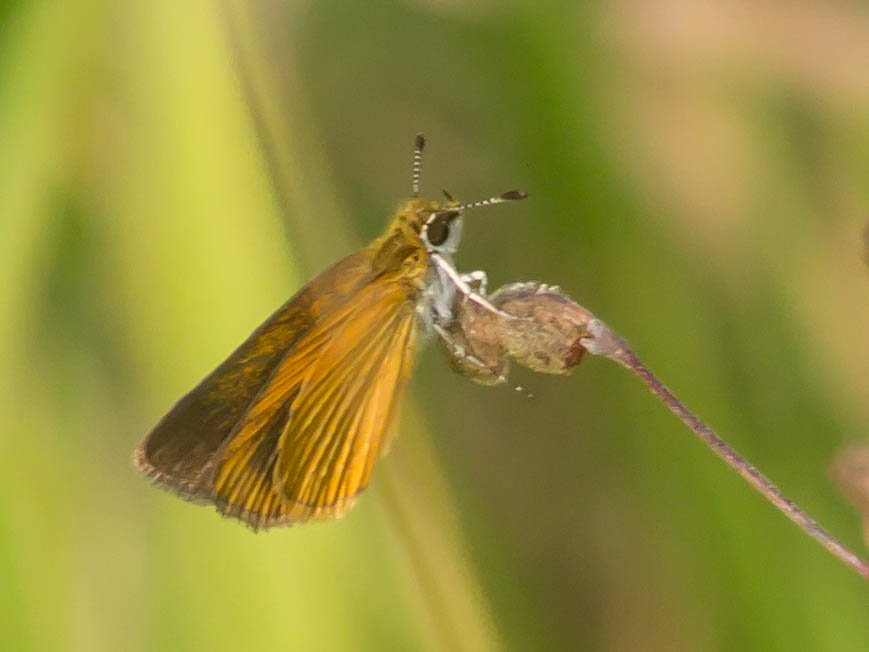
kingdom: Animalia
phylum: Arthropoda
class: Insecta
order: Lepidoptera
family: Hesperiidae
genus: Ancyloxypha
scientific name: Ancyloxypha numitor
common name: Least Skipper
